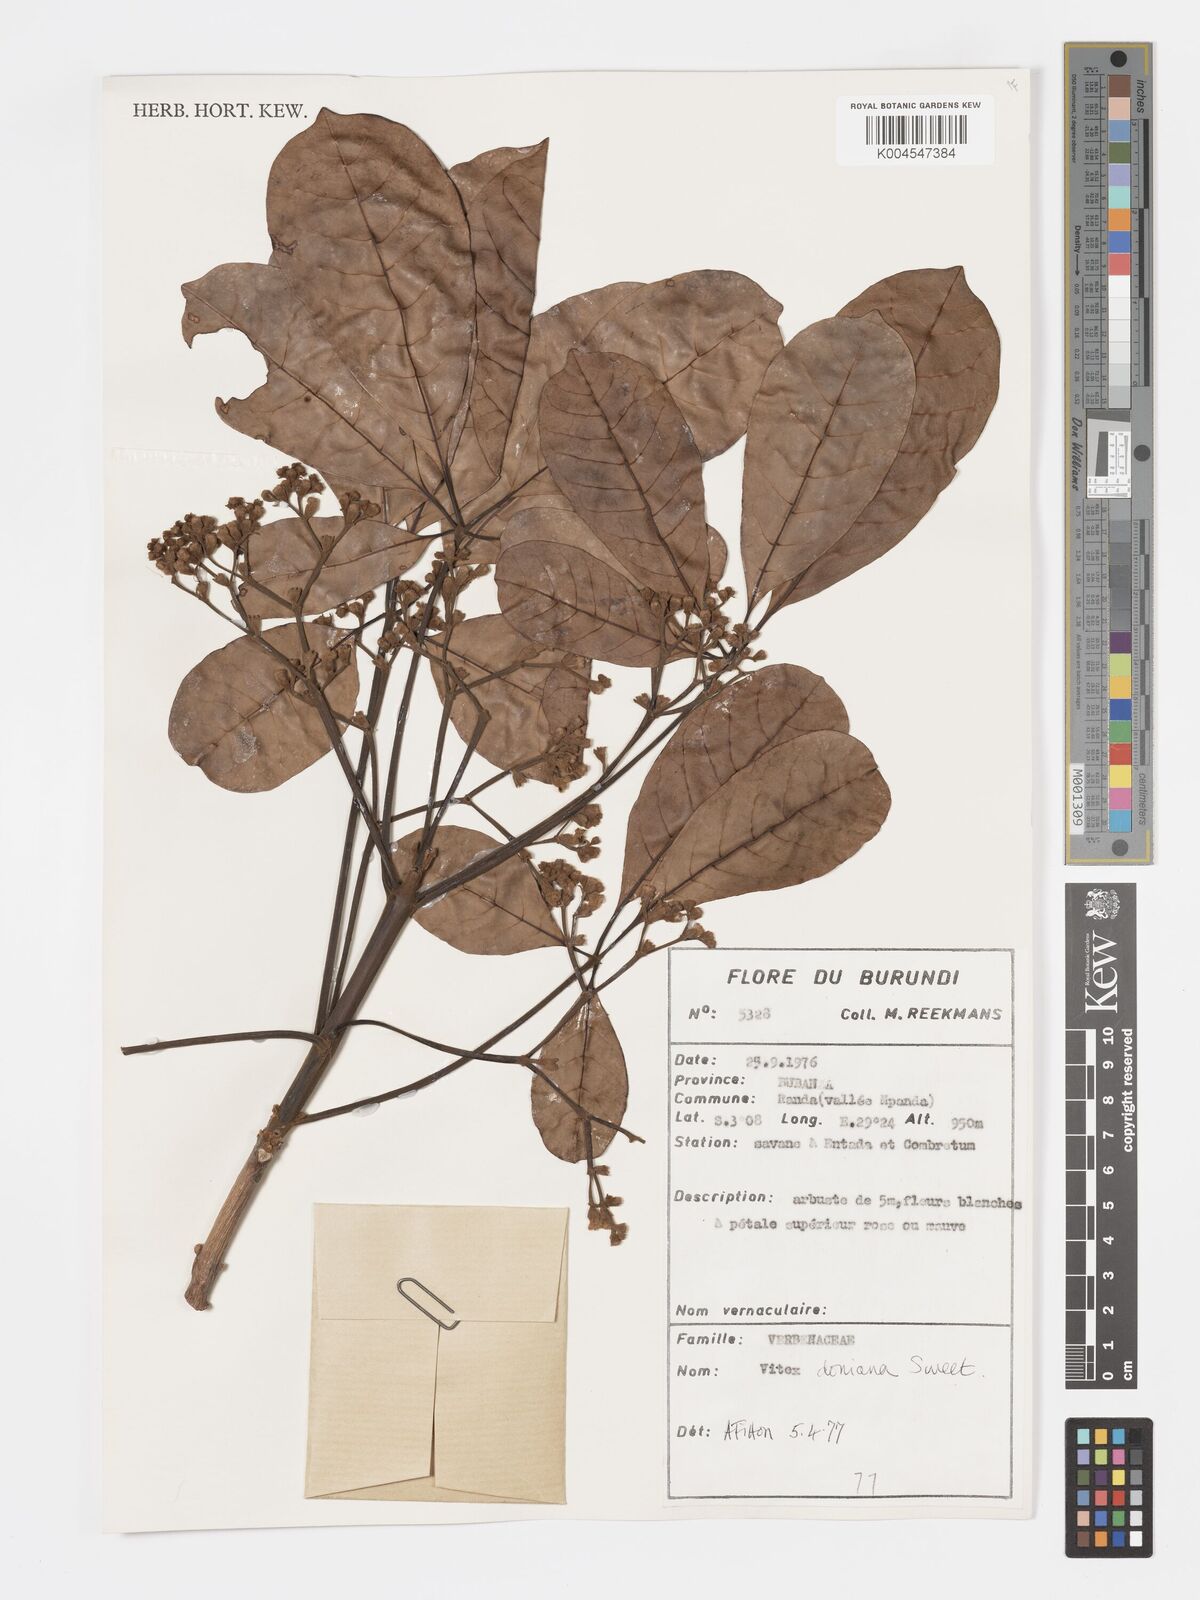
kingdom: Plantae
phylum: Tracheophyta
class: Magnoliopsida
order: Lamiales
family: Lamiaceae
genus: Vitex
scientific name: Vitex doniana
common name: Black plum
